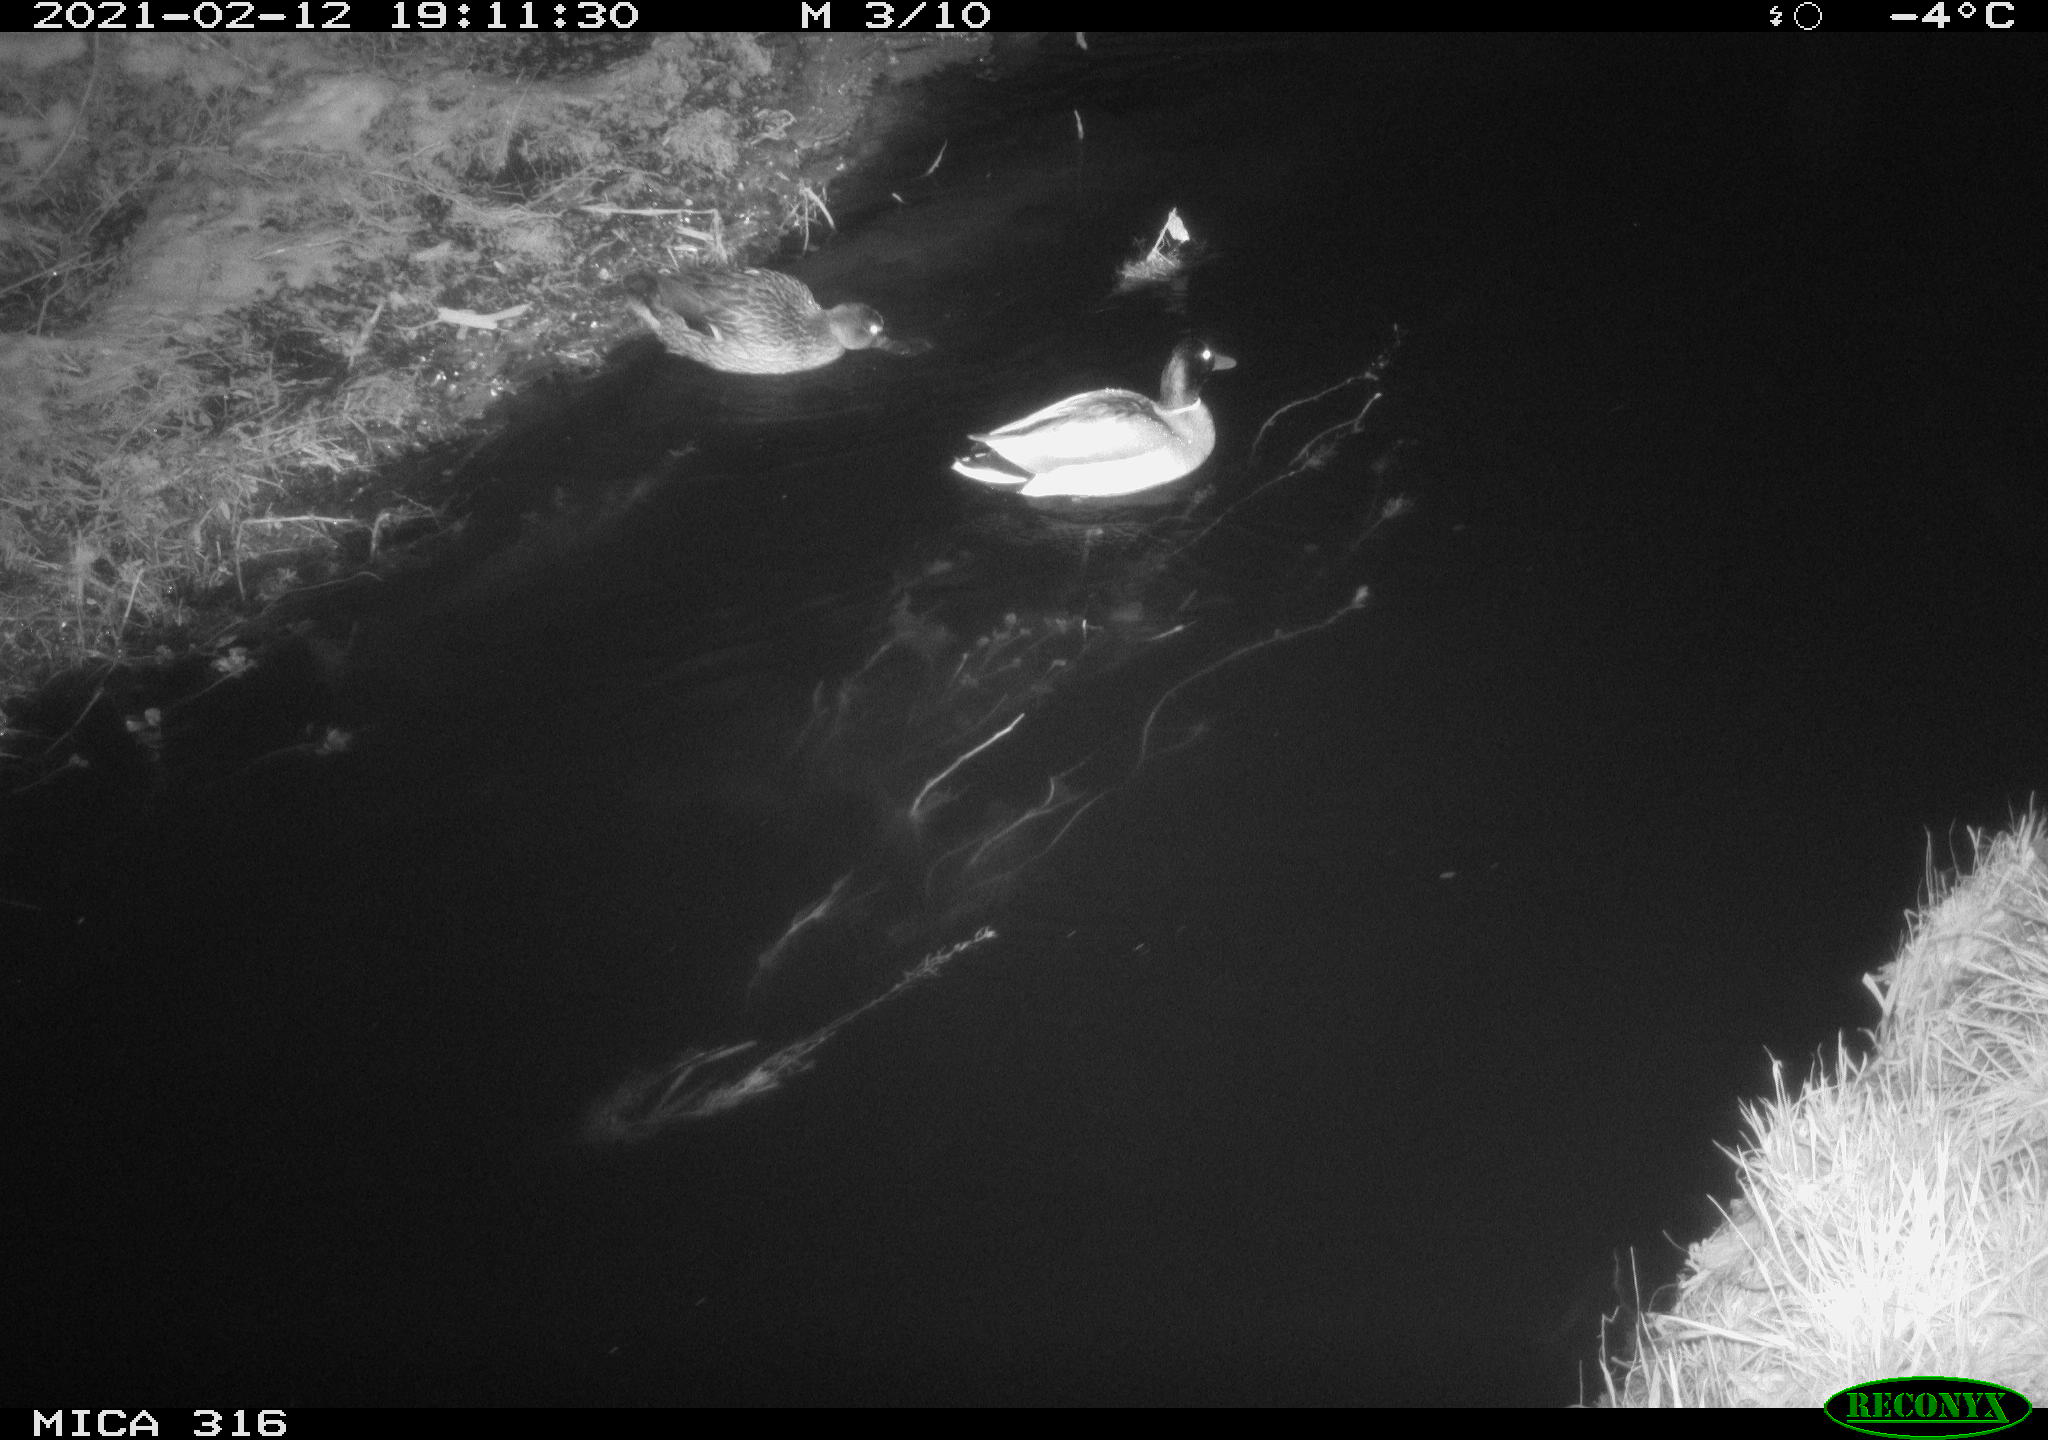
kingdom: Animalia
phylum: Chordata
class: Aves
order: Anseriformes
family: Anatidae
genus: Anas
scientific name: Anas platyrhynchos
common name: Mallard
